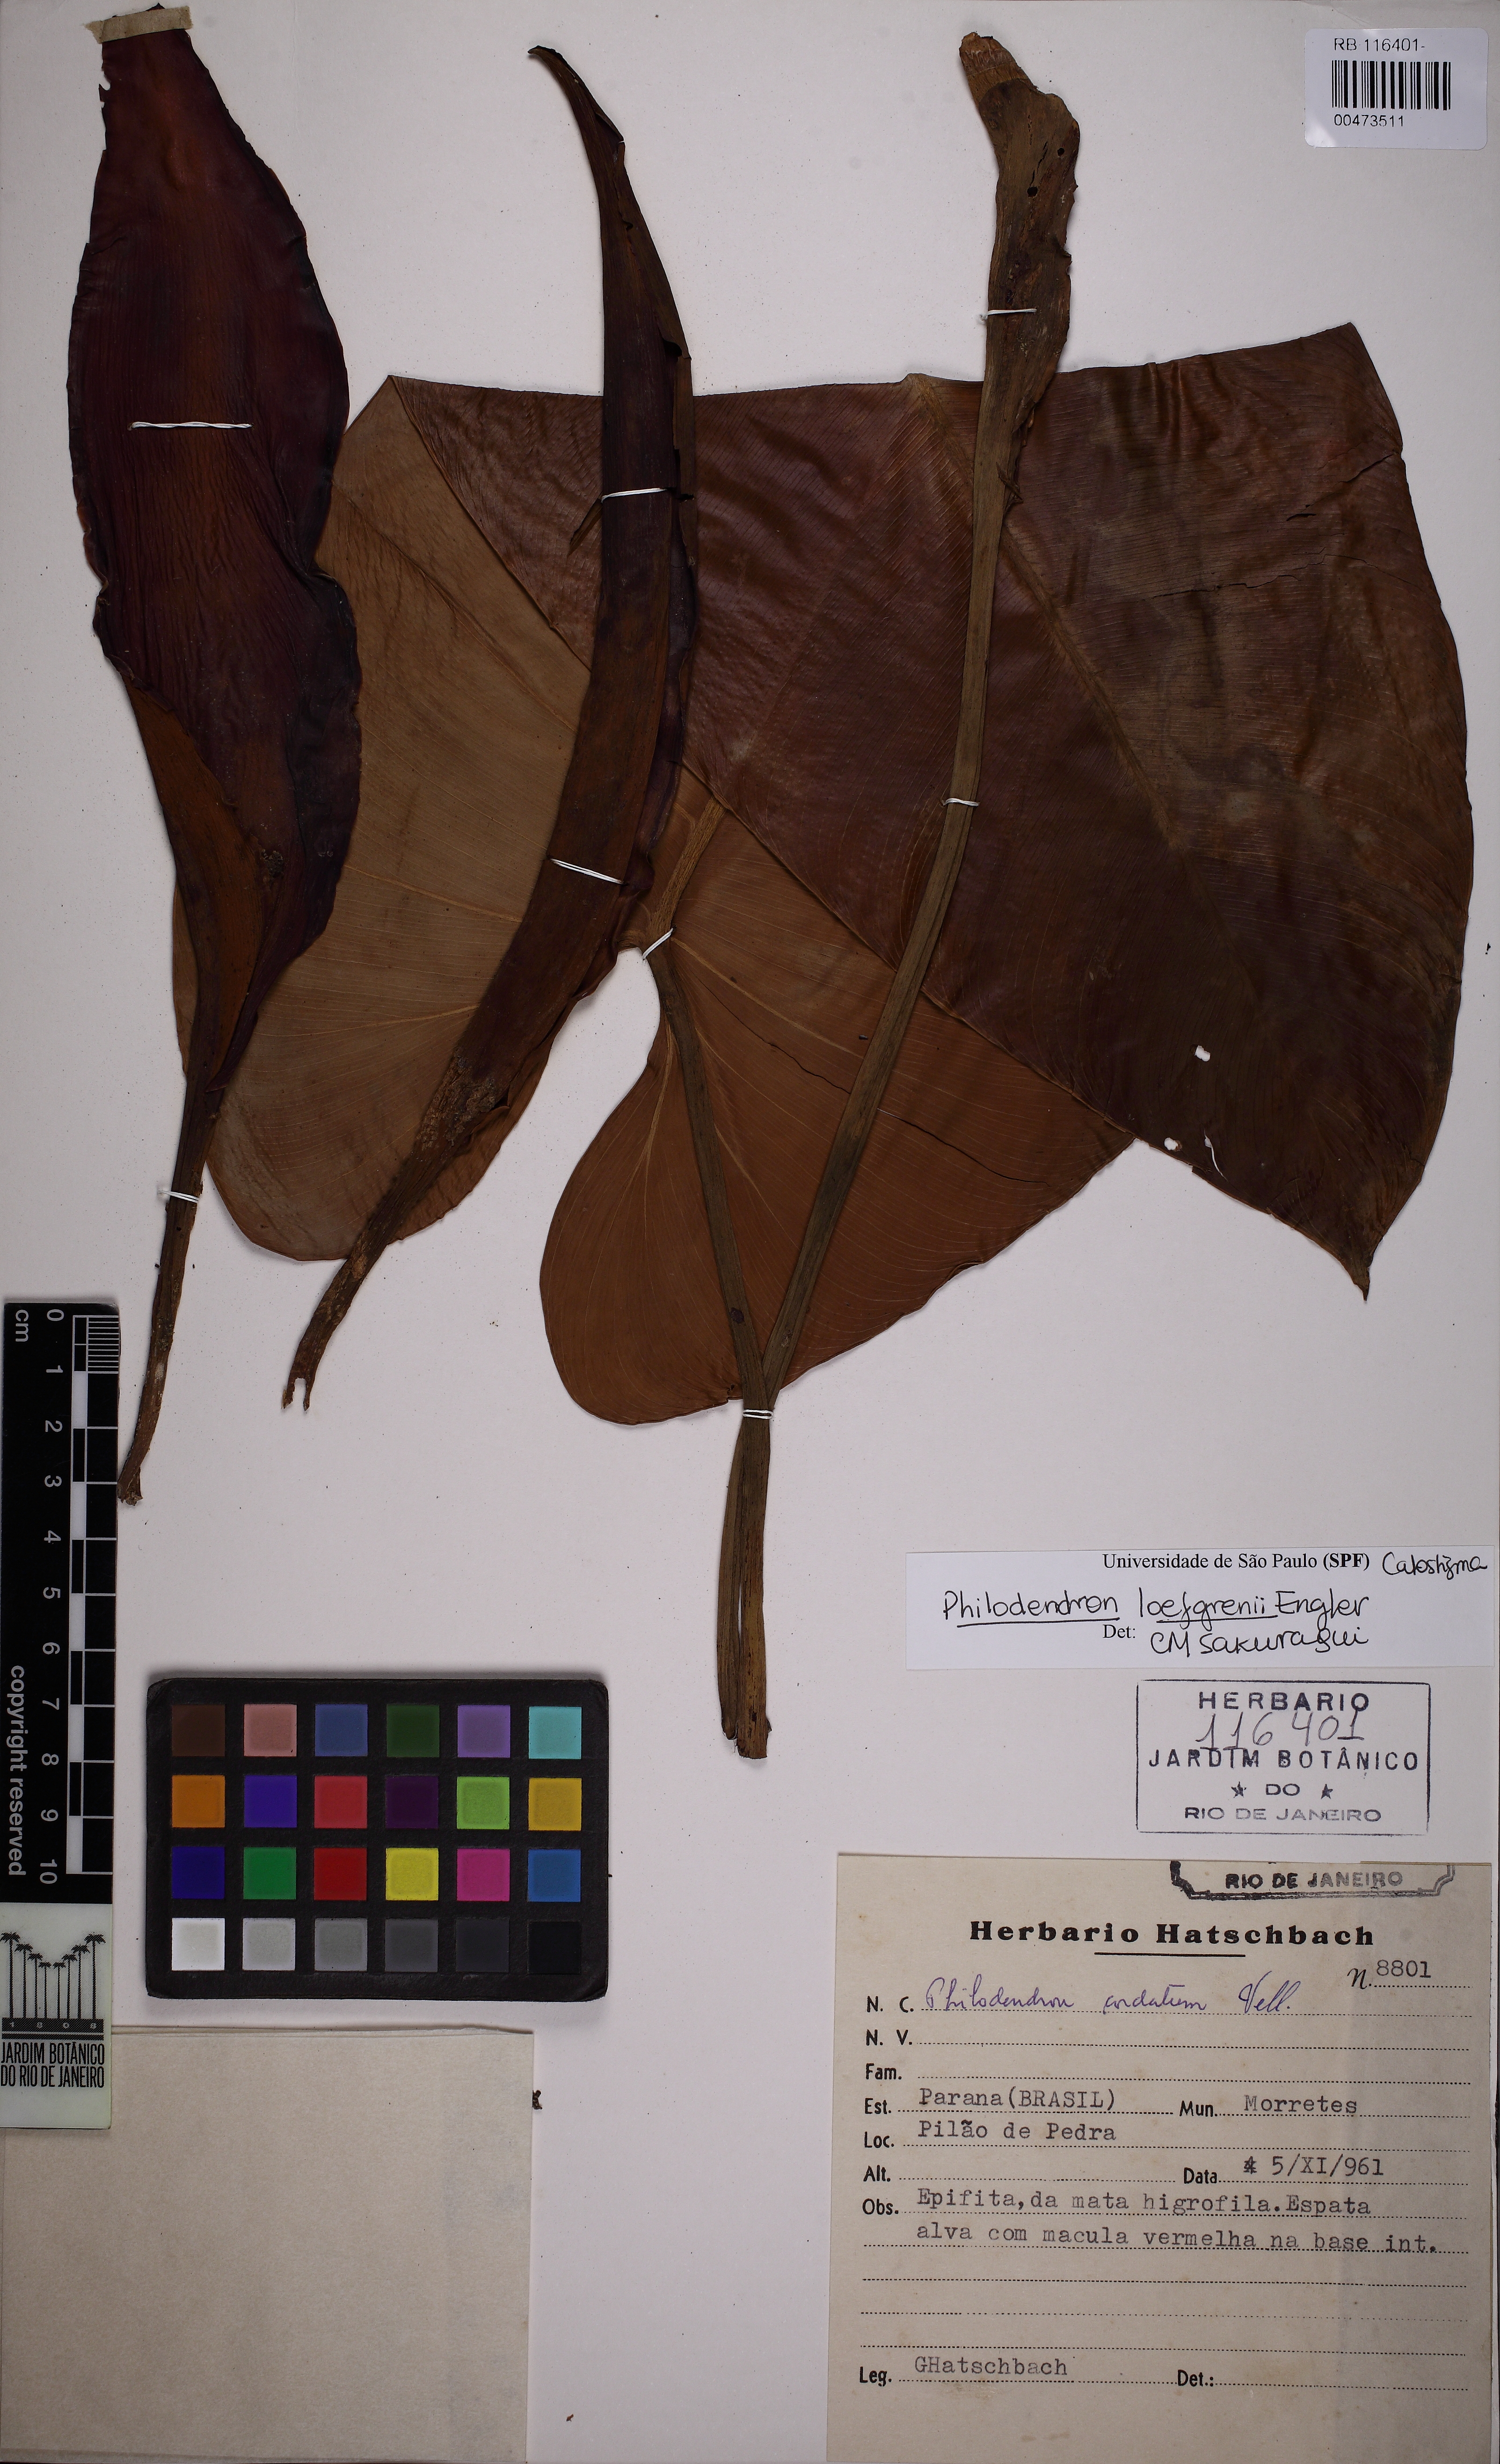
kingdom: Plantae
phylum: Tracheophyta
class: Liliopsida
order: Alismatales
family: Araceae
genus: Philodendron
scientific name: Philodendron loefgrenii
